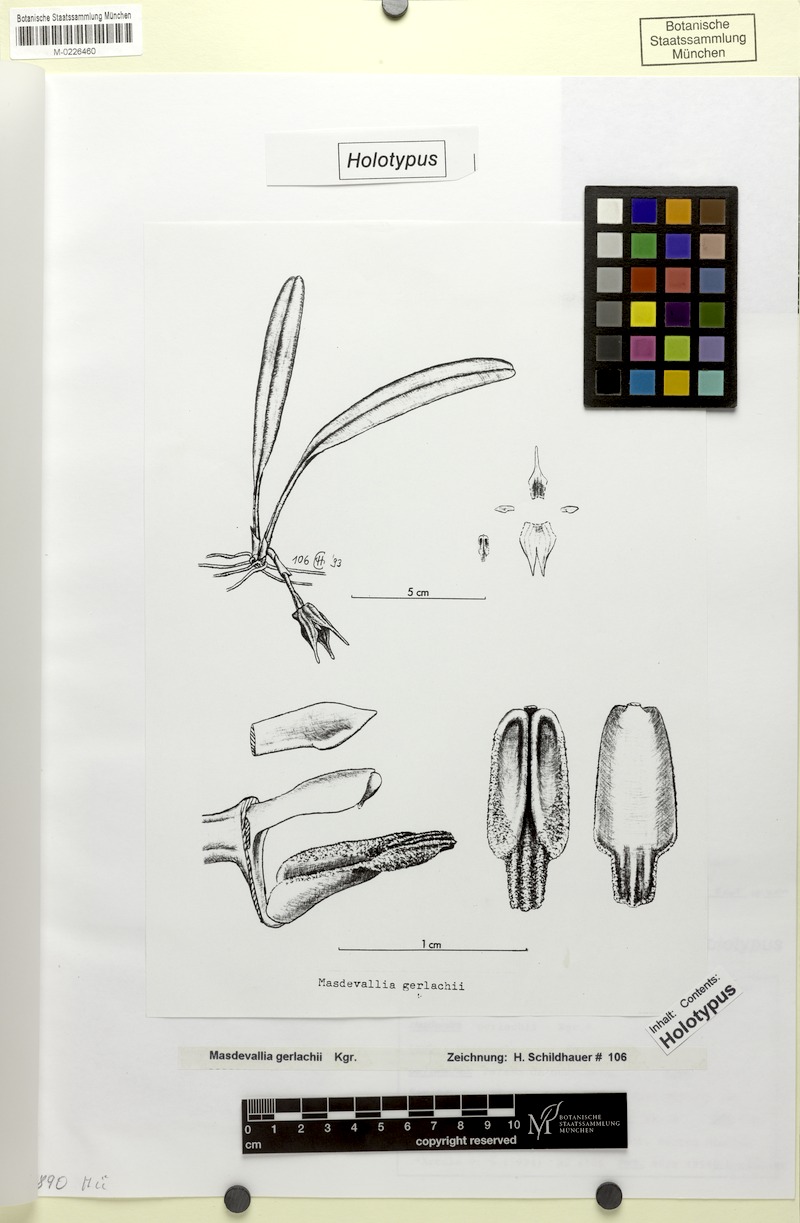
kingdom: Plantae
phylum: Tracheophyta
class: Liliopsida
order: Asparagales
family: Orchidaceae
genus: Masdevallia
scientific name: Masdevallia macroglossa
